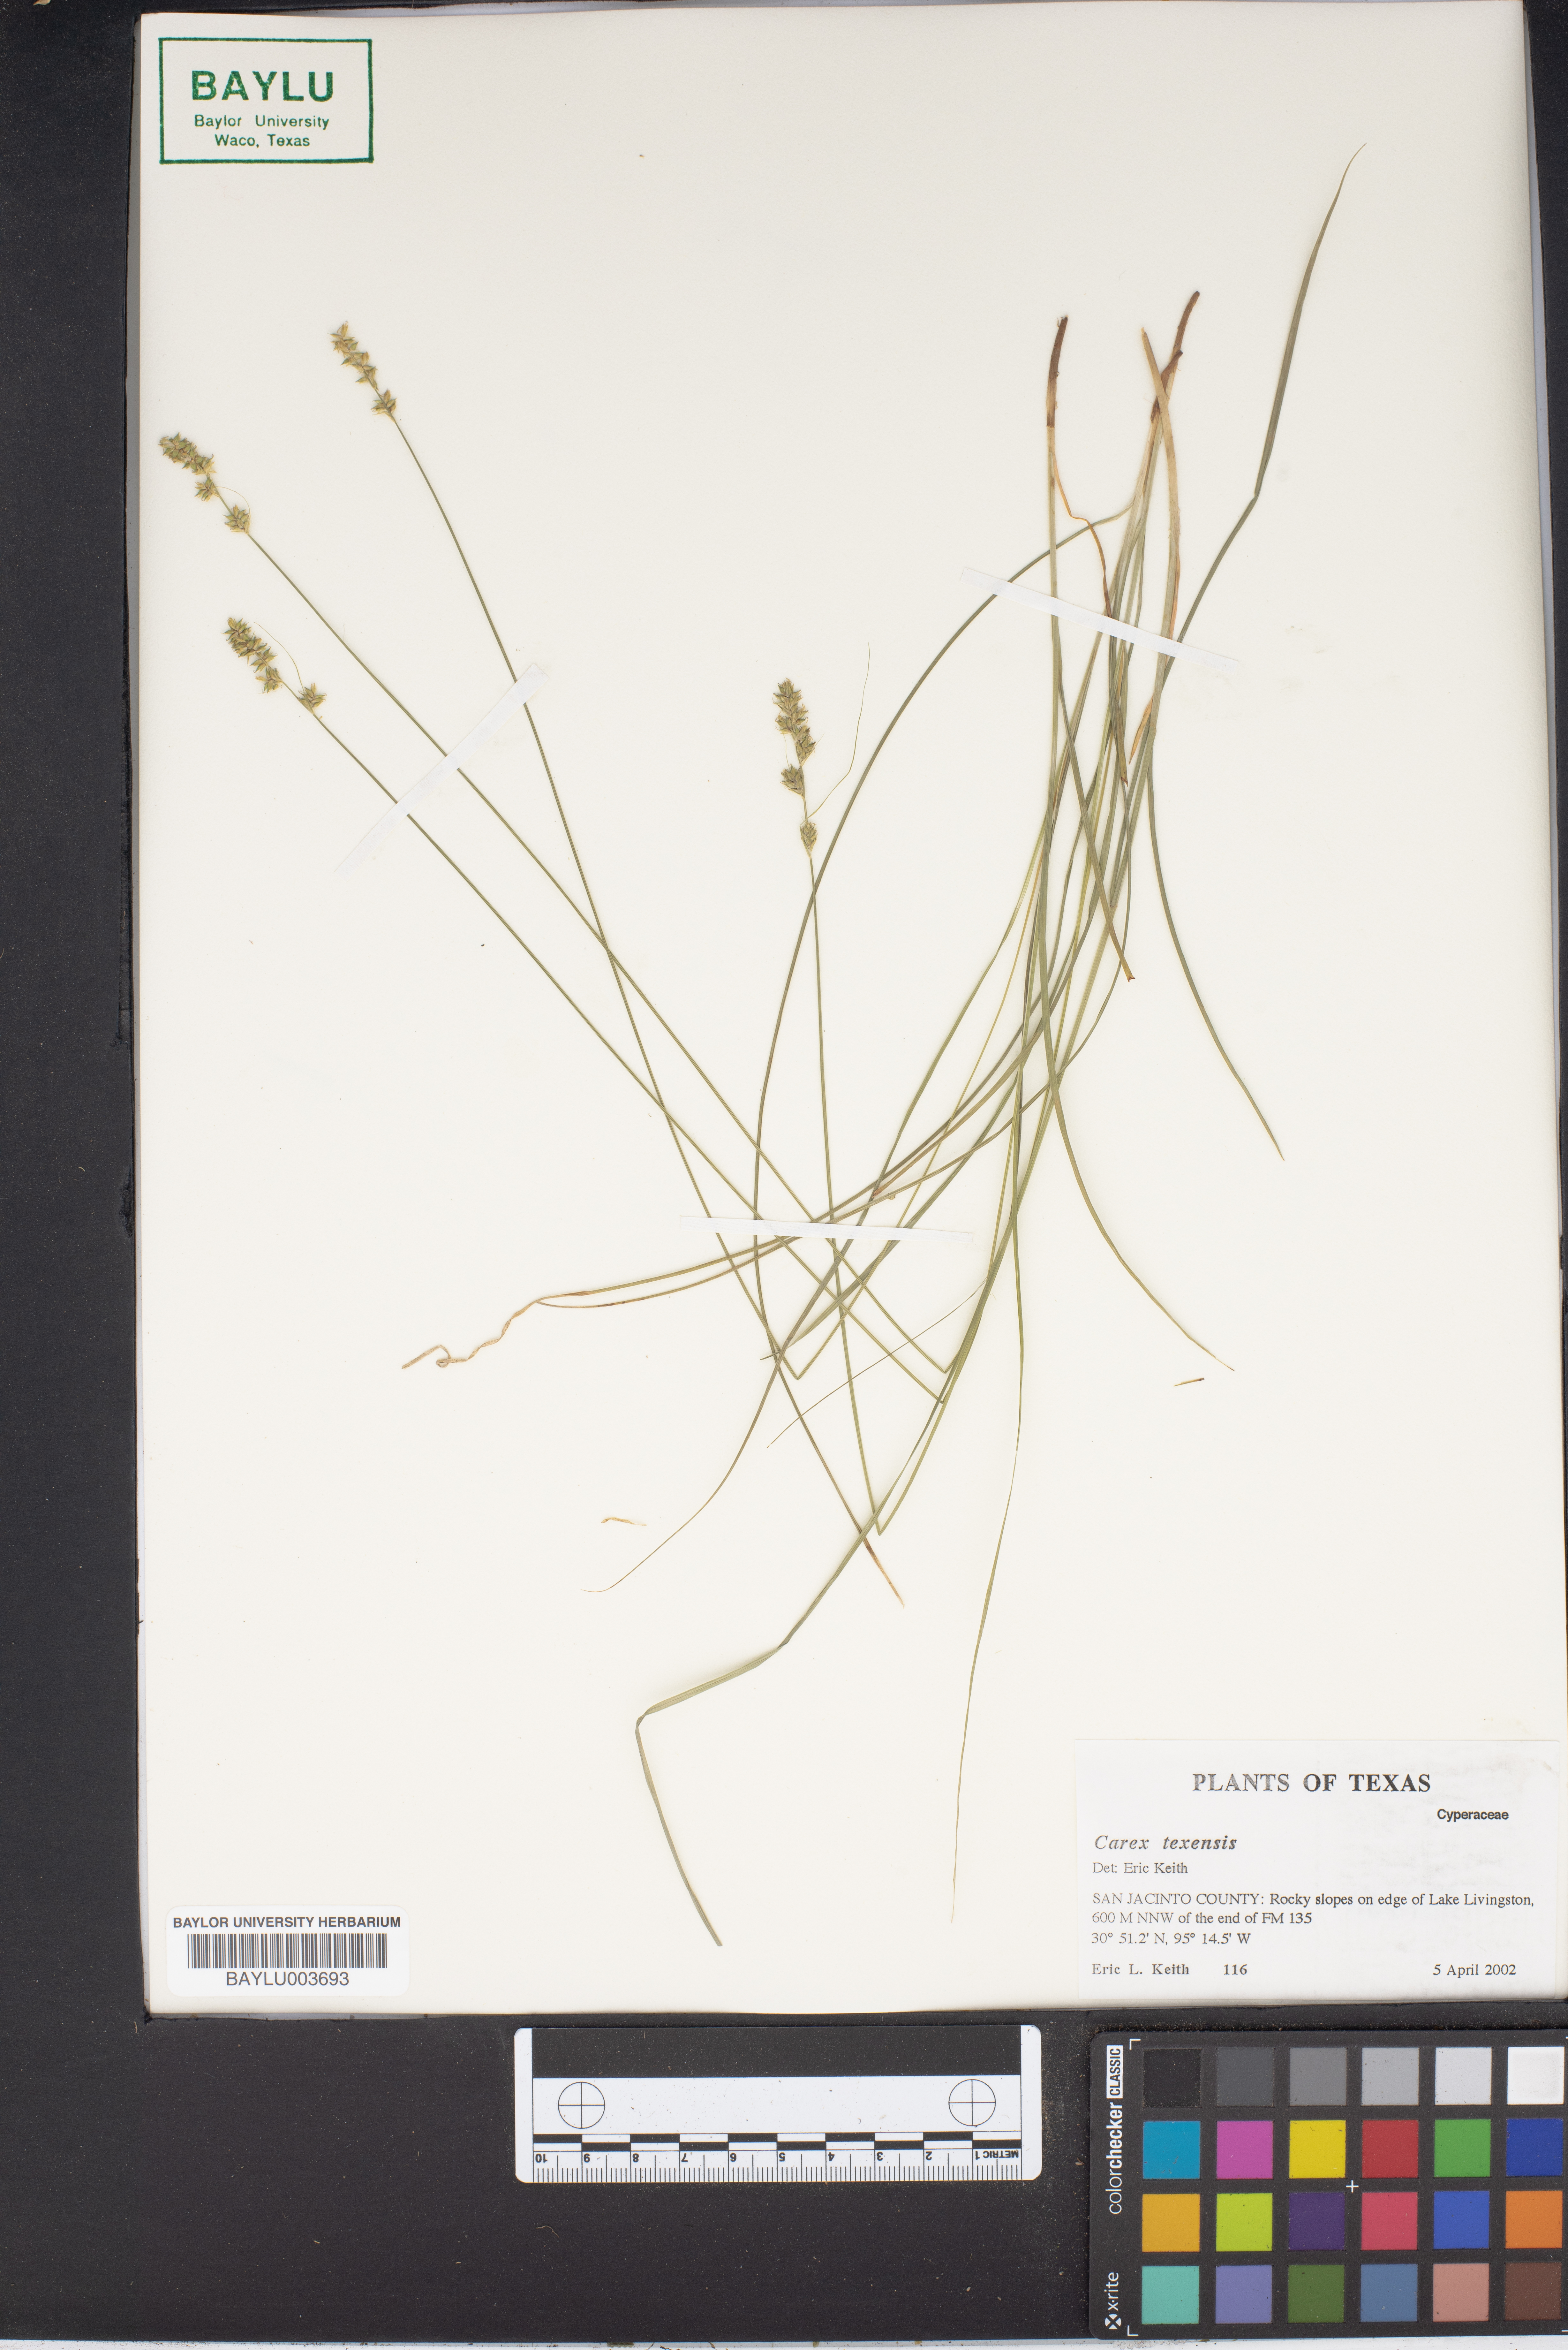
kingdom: Plantae
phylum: Tracheophyta
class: Liliopsida
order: Poales
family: Cyperaceae
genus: Carex
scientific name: Carex texensis
